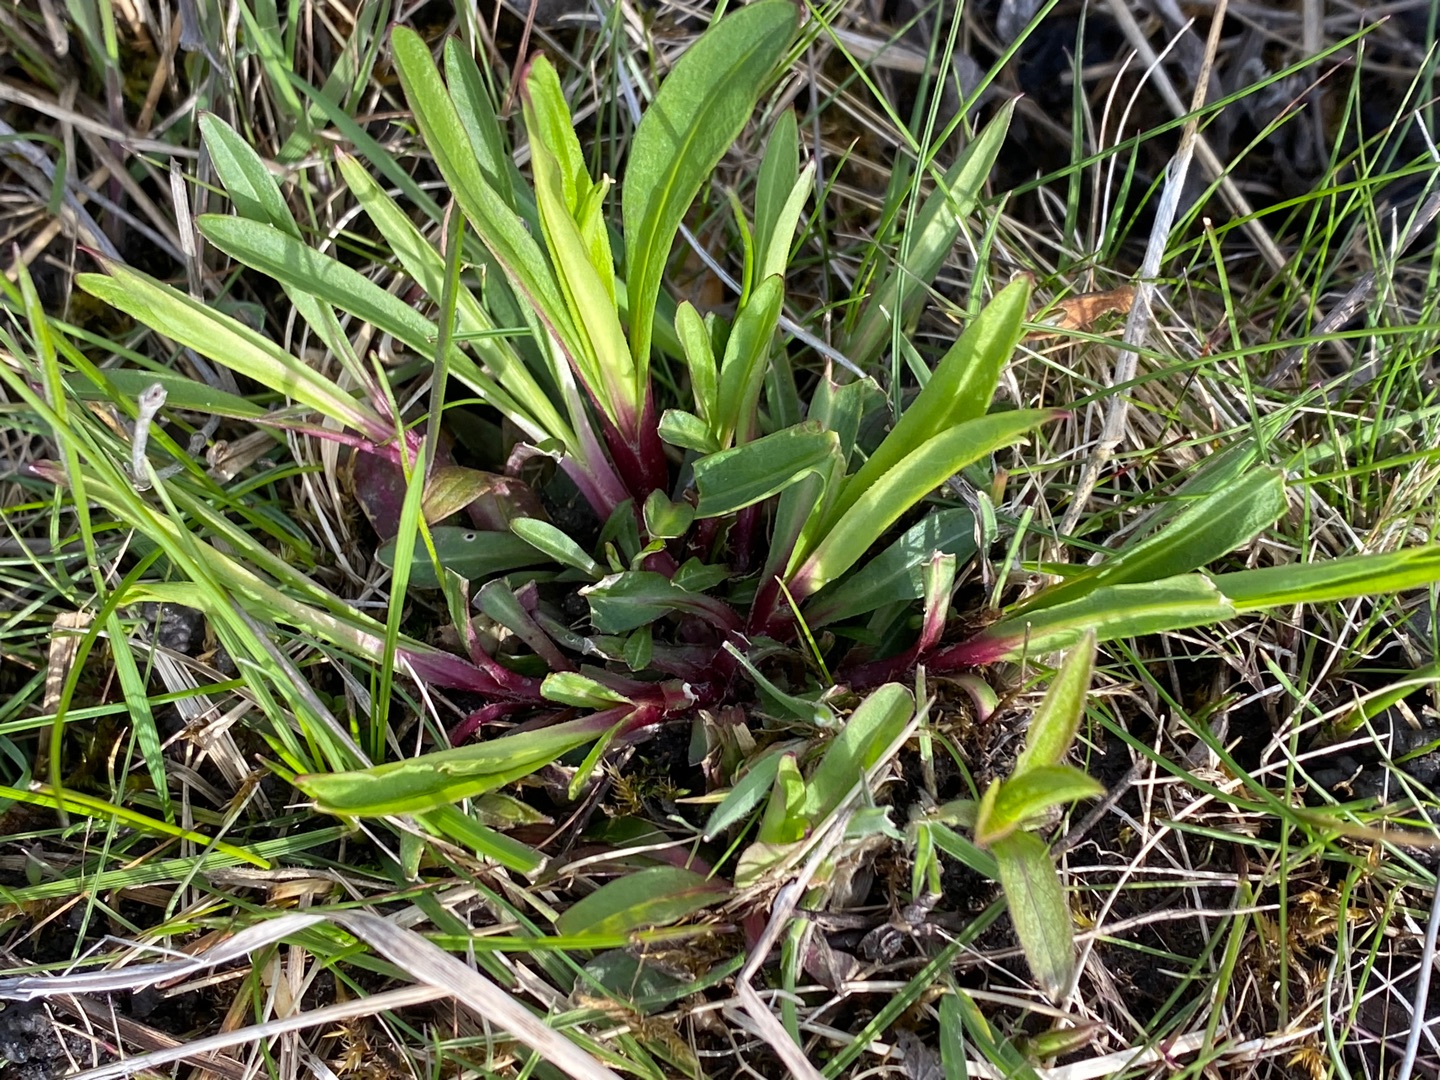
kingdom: Plantae
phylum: Tracheophyta
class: Magnoliopsida
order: Caryophyllales
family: Caryophyllaceae
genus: Silene
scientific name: Silene flos-cuculi
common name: Trævlekrone
